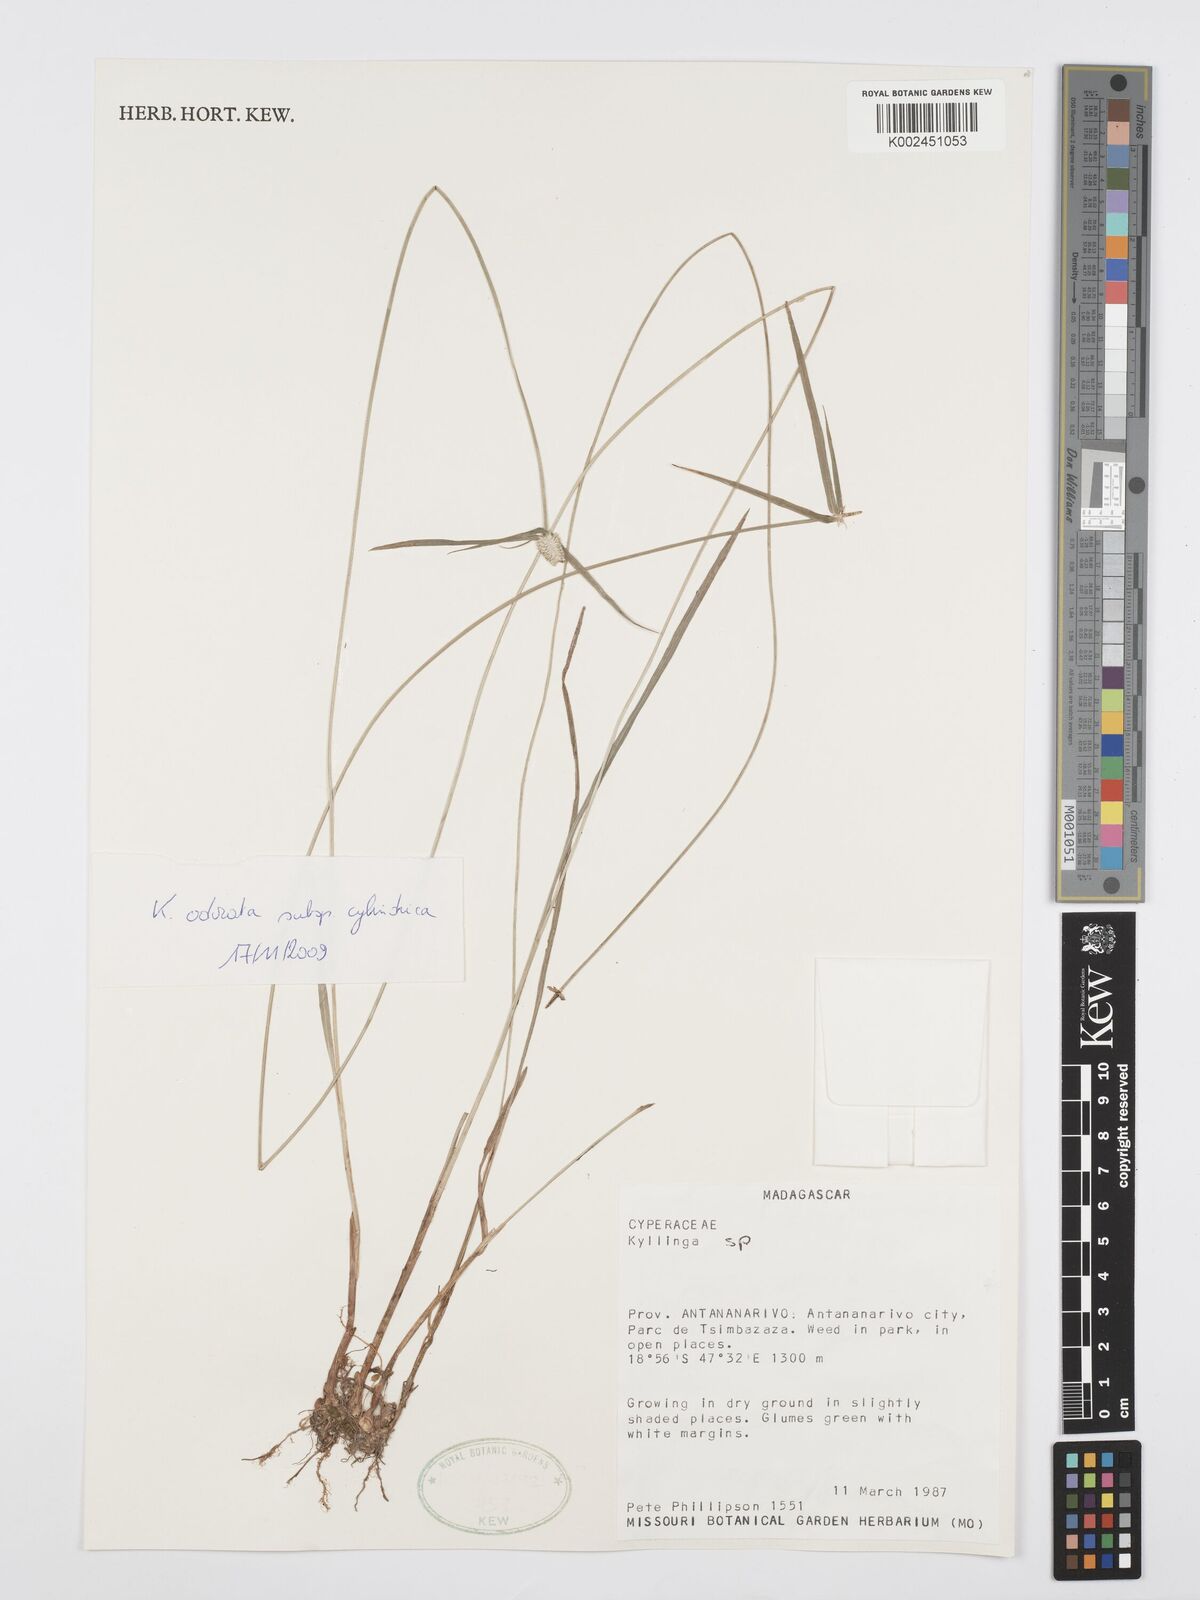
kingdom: Plantae
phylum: Tracheophyta
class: Liliopsida
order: Poales
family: Cyperaceae
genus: Cyperus
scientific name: Cyperus
